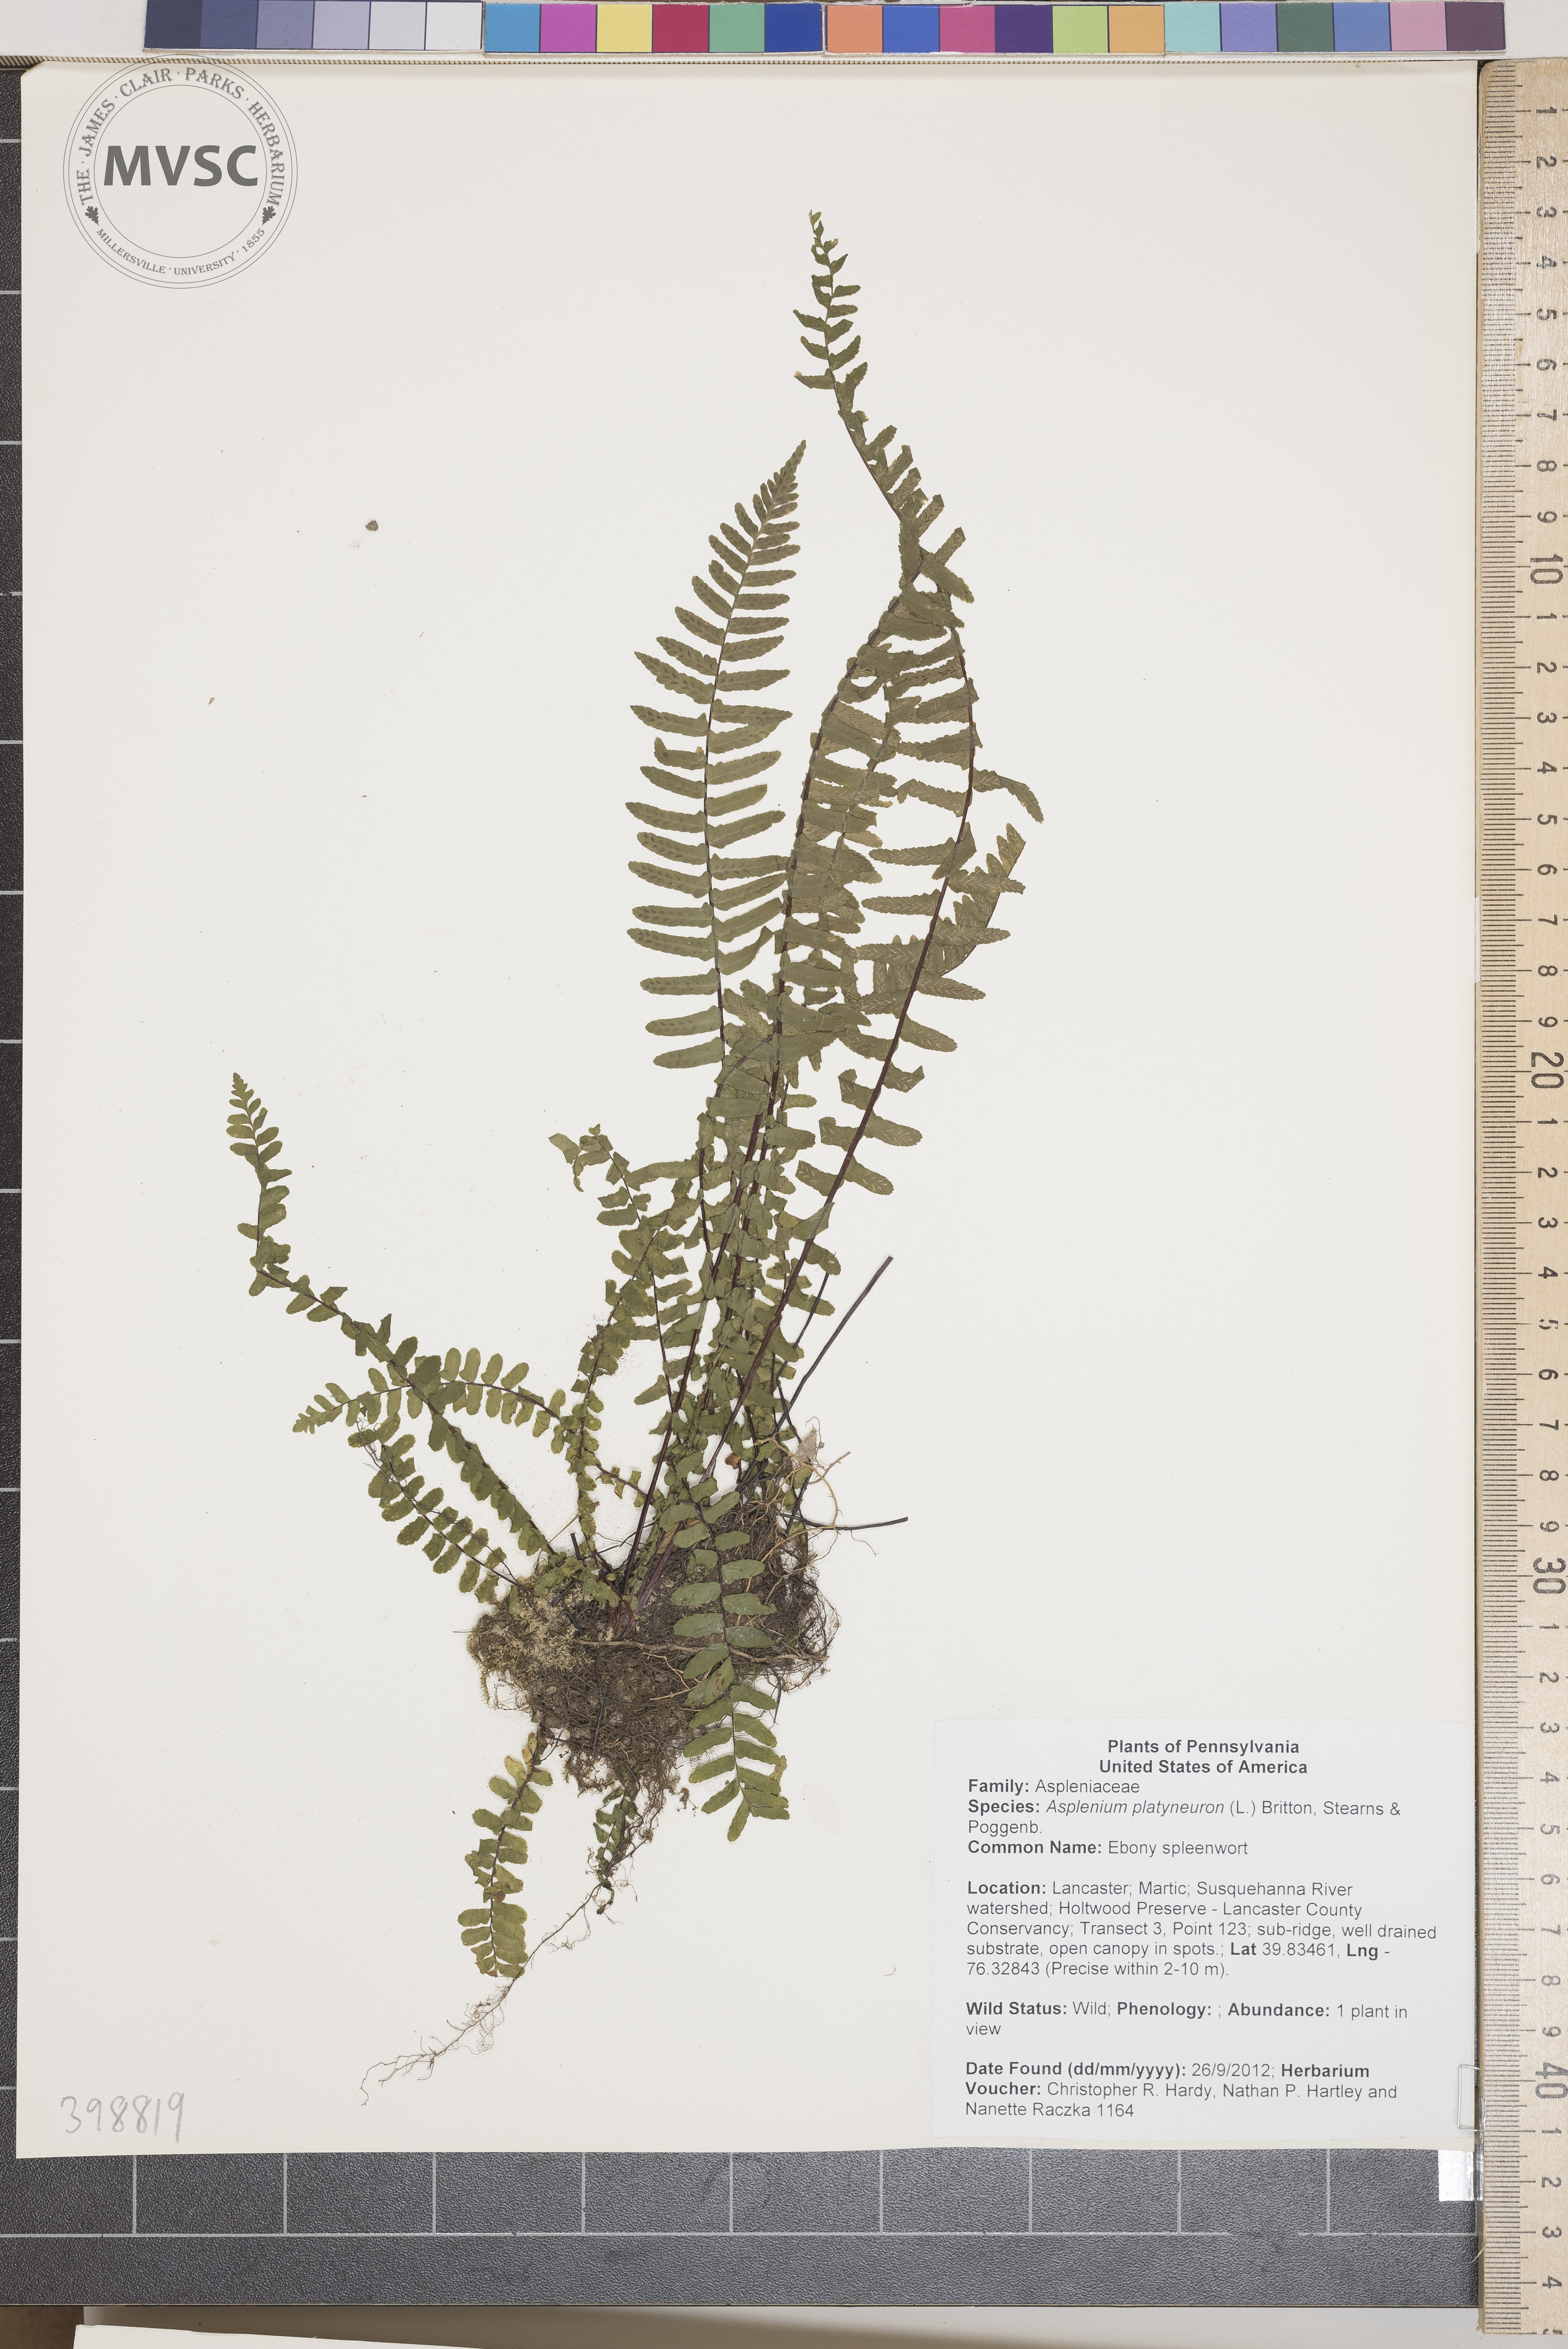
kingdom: Plantae
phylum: Tracheophyta
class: Polypodiopsida
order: Polypodiales
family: Aspleniaceae
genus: Asplenium
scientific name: Asplenium platyneuron
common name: Ebony spleenwort
